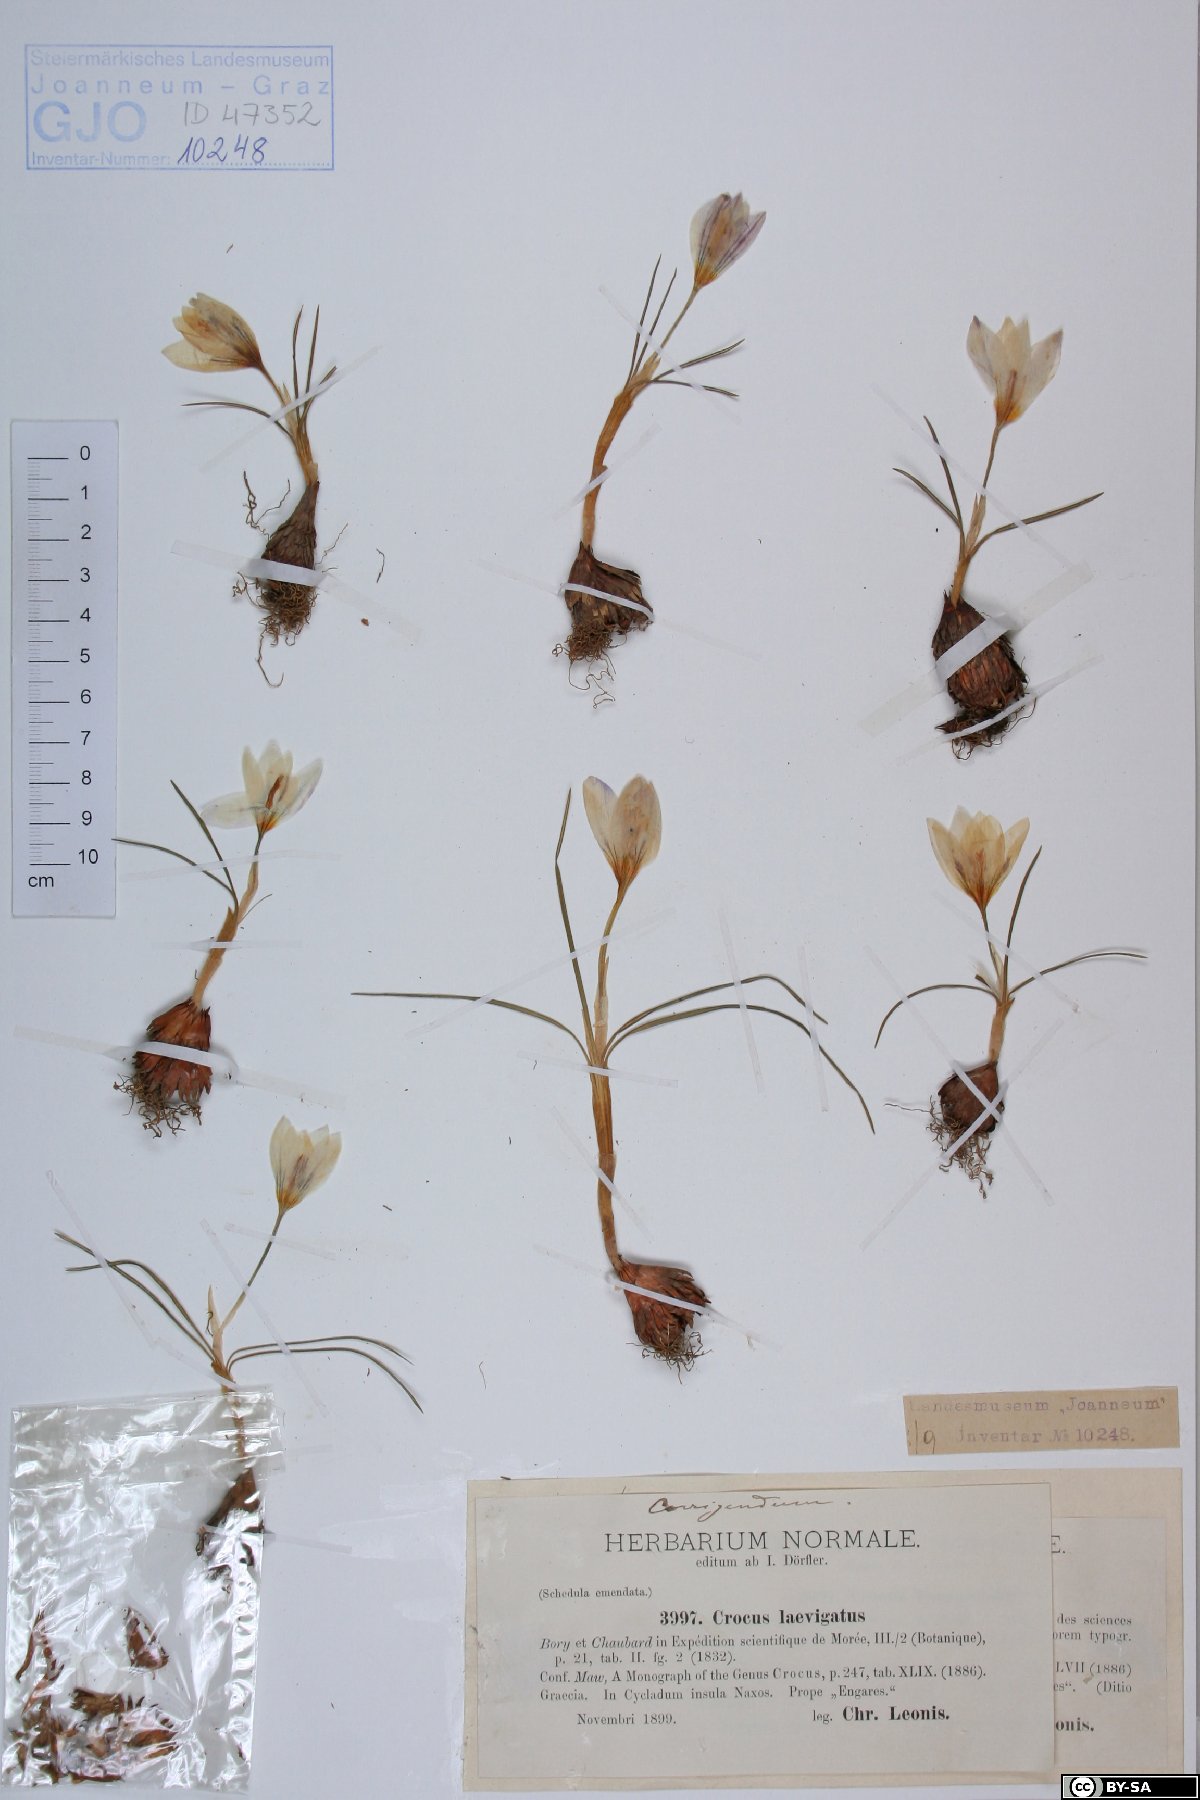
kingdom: Plantae
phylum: Tracheophyta
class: Liliopsida
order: Asparagales
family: Iridaceae
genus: Crocus
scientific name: Crocus laevigatus
